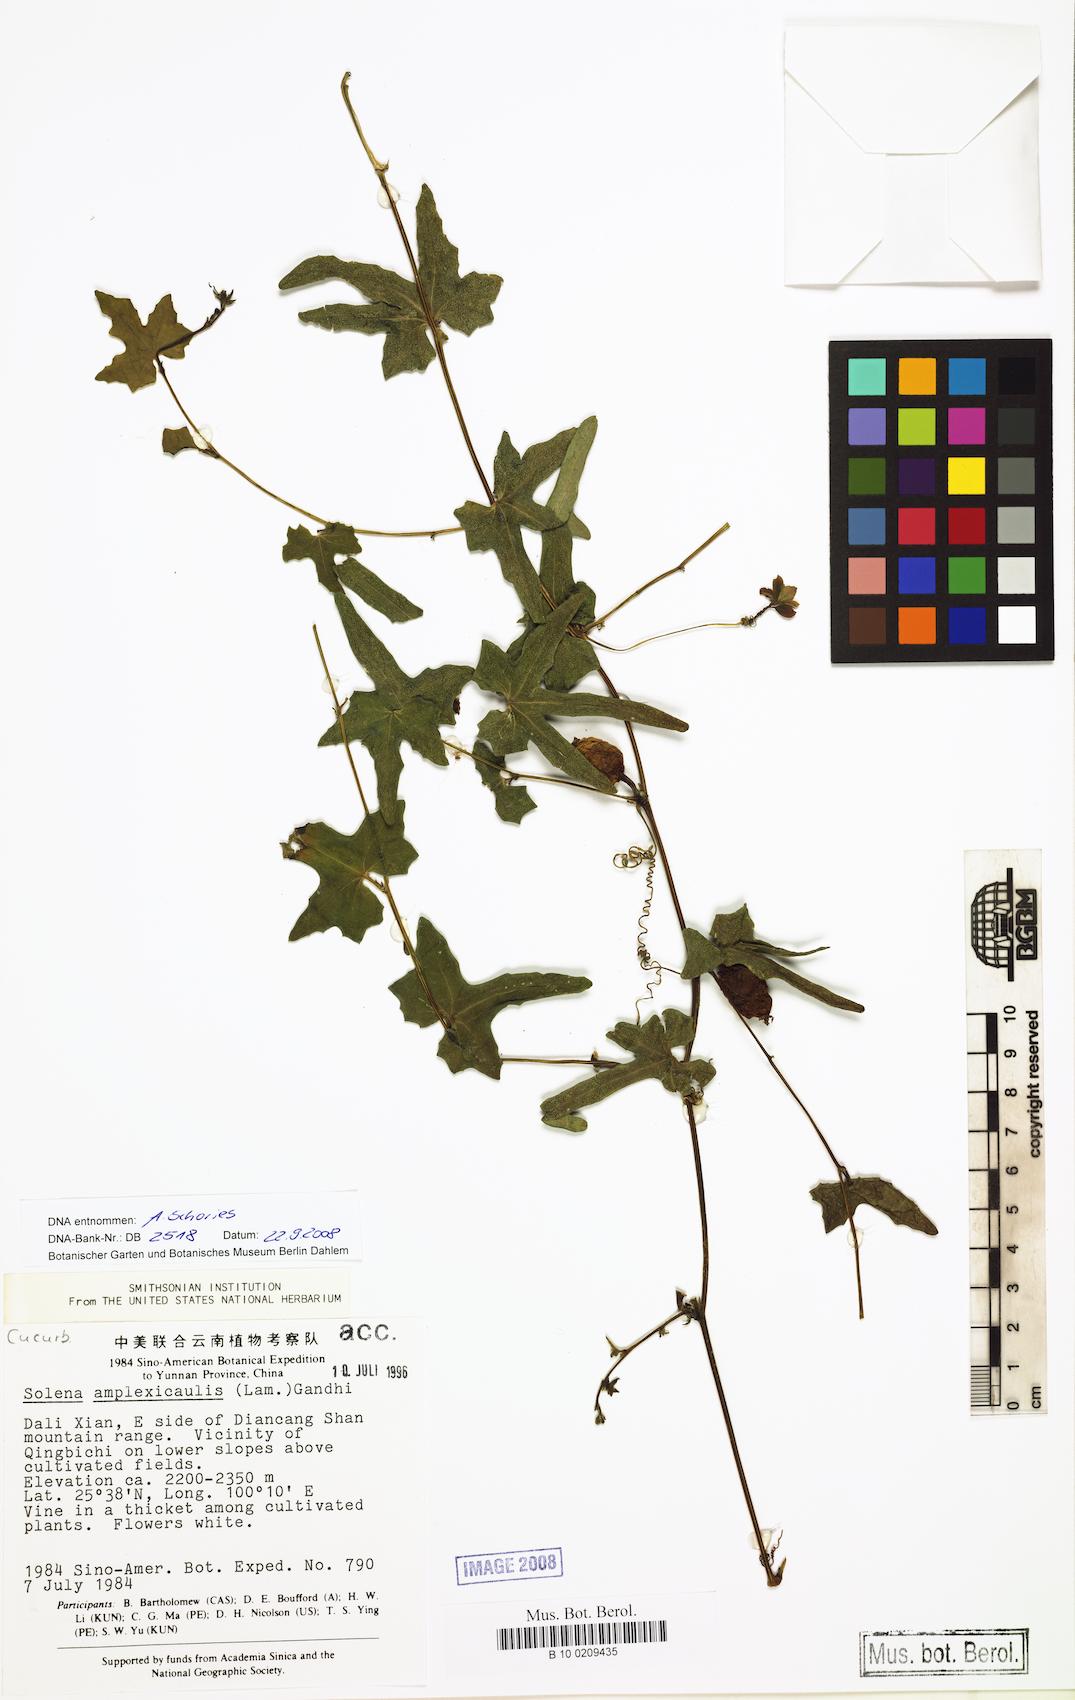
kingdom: Plantae
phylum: Tracheophyta
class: Magnoliopsida
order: Cucurbitales
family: Cucurbitaceae
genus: Solena
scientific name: Solena amplexicaulis
